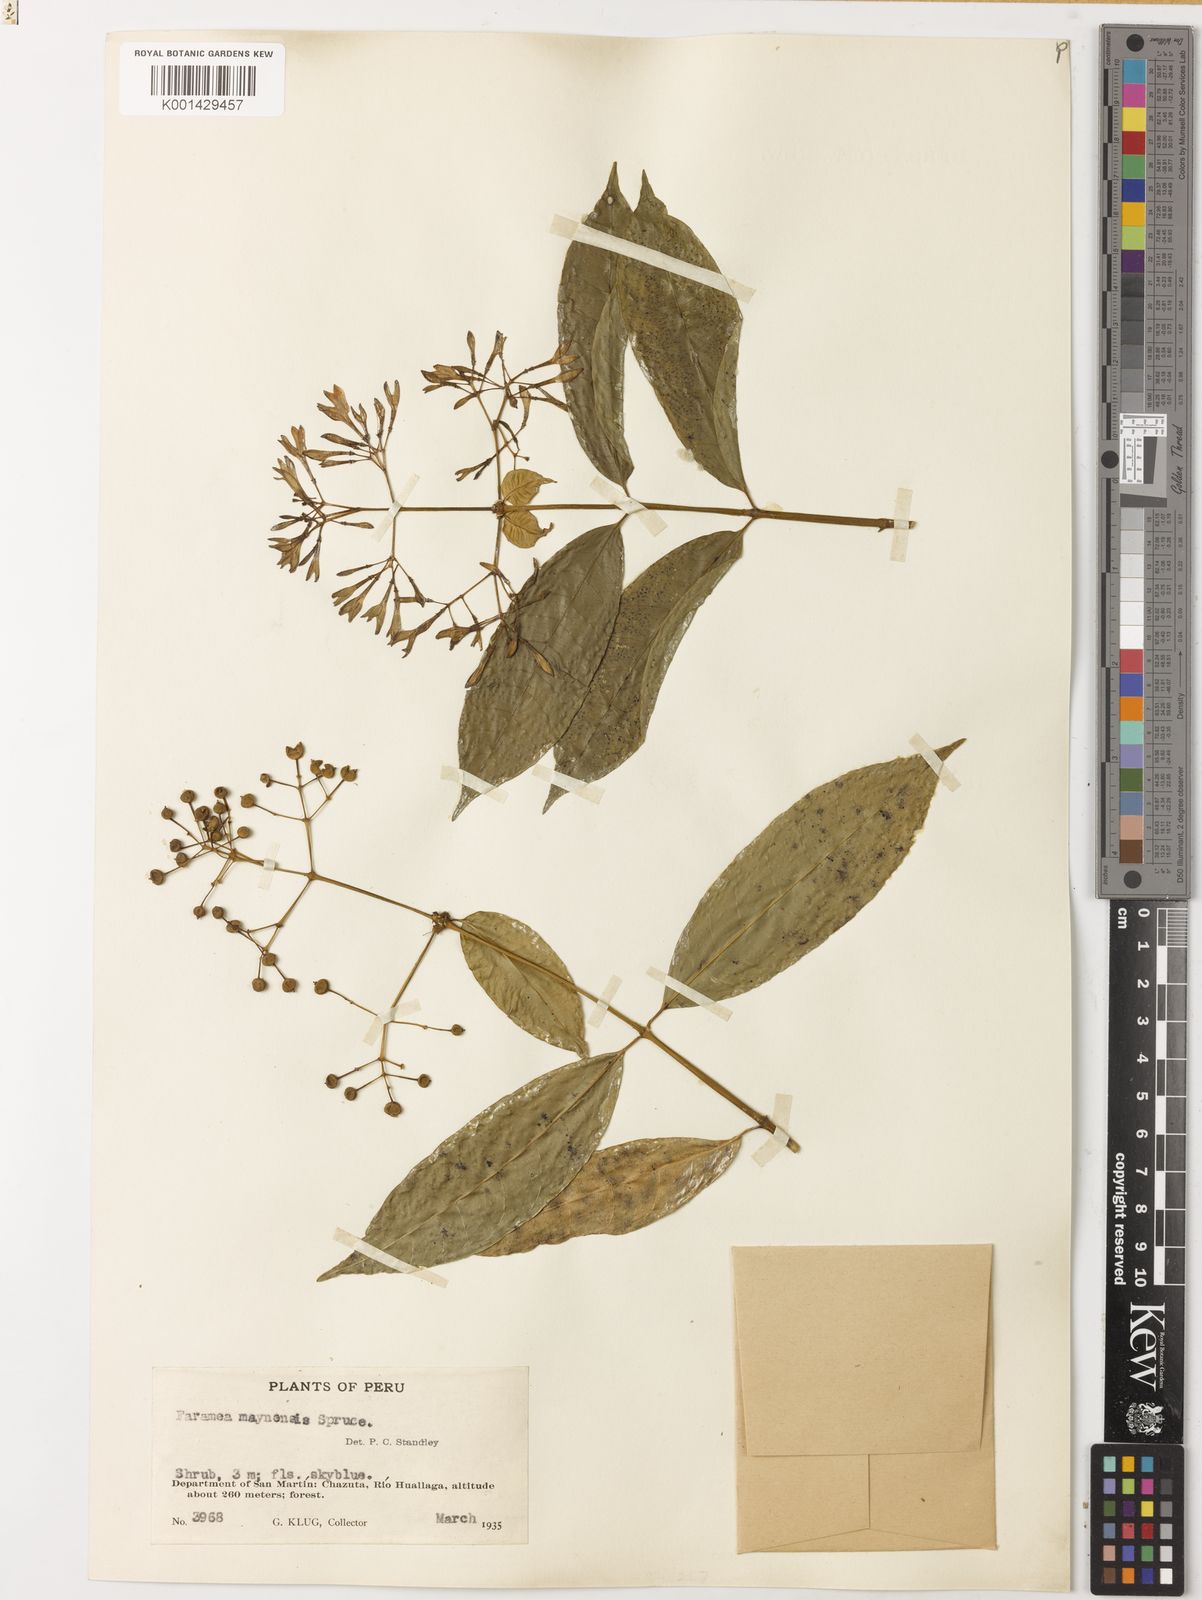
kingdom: Plantae
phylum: Tracheophyta
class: Magnoliopsida
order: Gentianales
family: Rubiaceae
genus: Faramea
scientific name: Faramea multiflora
